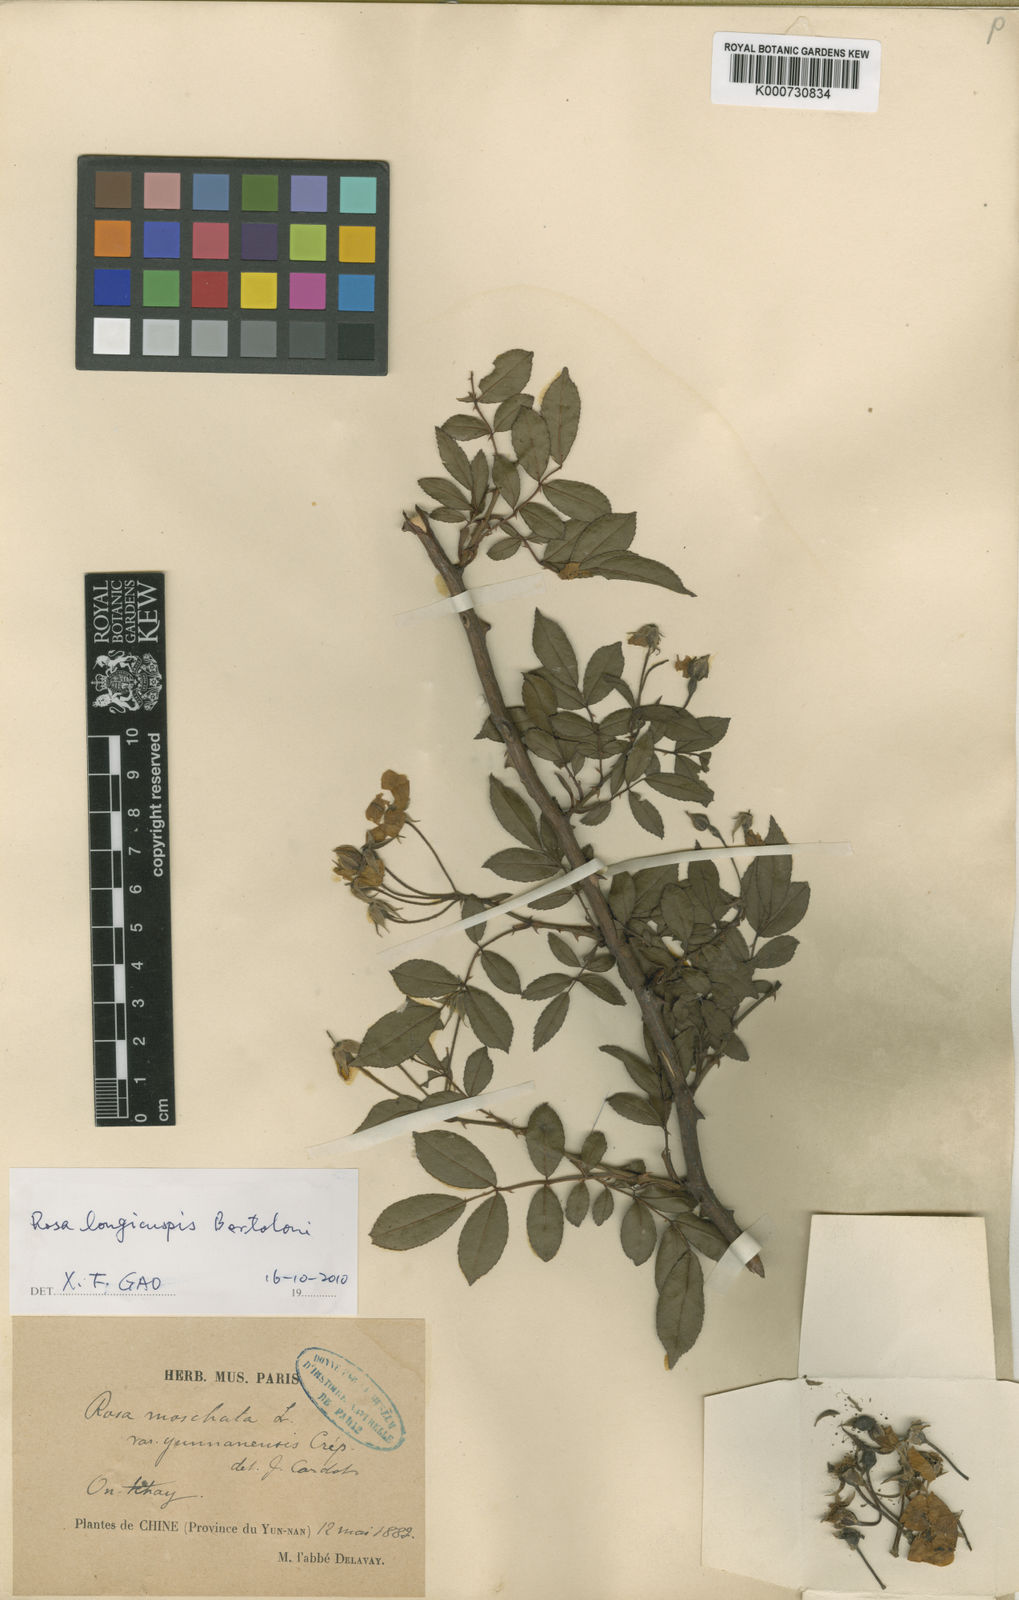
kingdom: Plantae
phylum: Tracheophyta
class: Magnoliopsida
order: Rosales
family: Rosaceae
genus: Rosa
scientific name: Rosa
